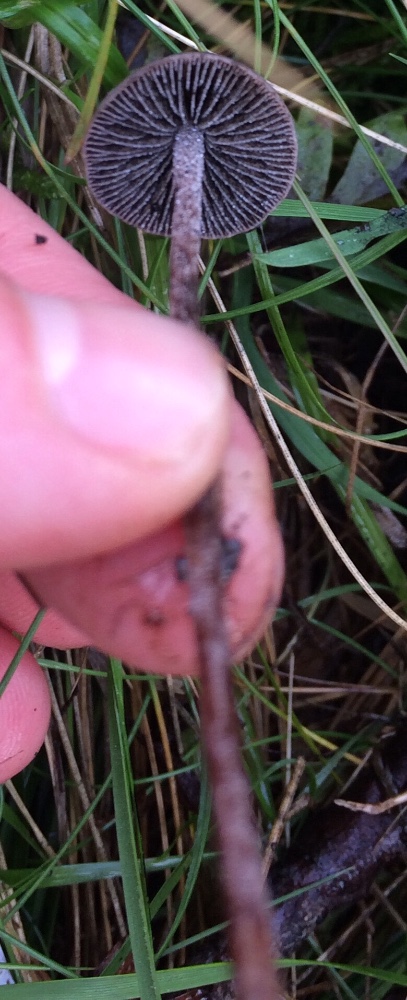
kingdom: Fungi
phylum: Basidiomycota
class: Agaricomycetes
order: Agaricales
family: Bolbitiaceae
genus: Panaeolus
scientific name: Panaeolus acuminatus
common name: høj glanshat
